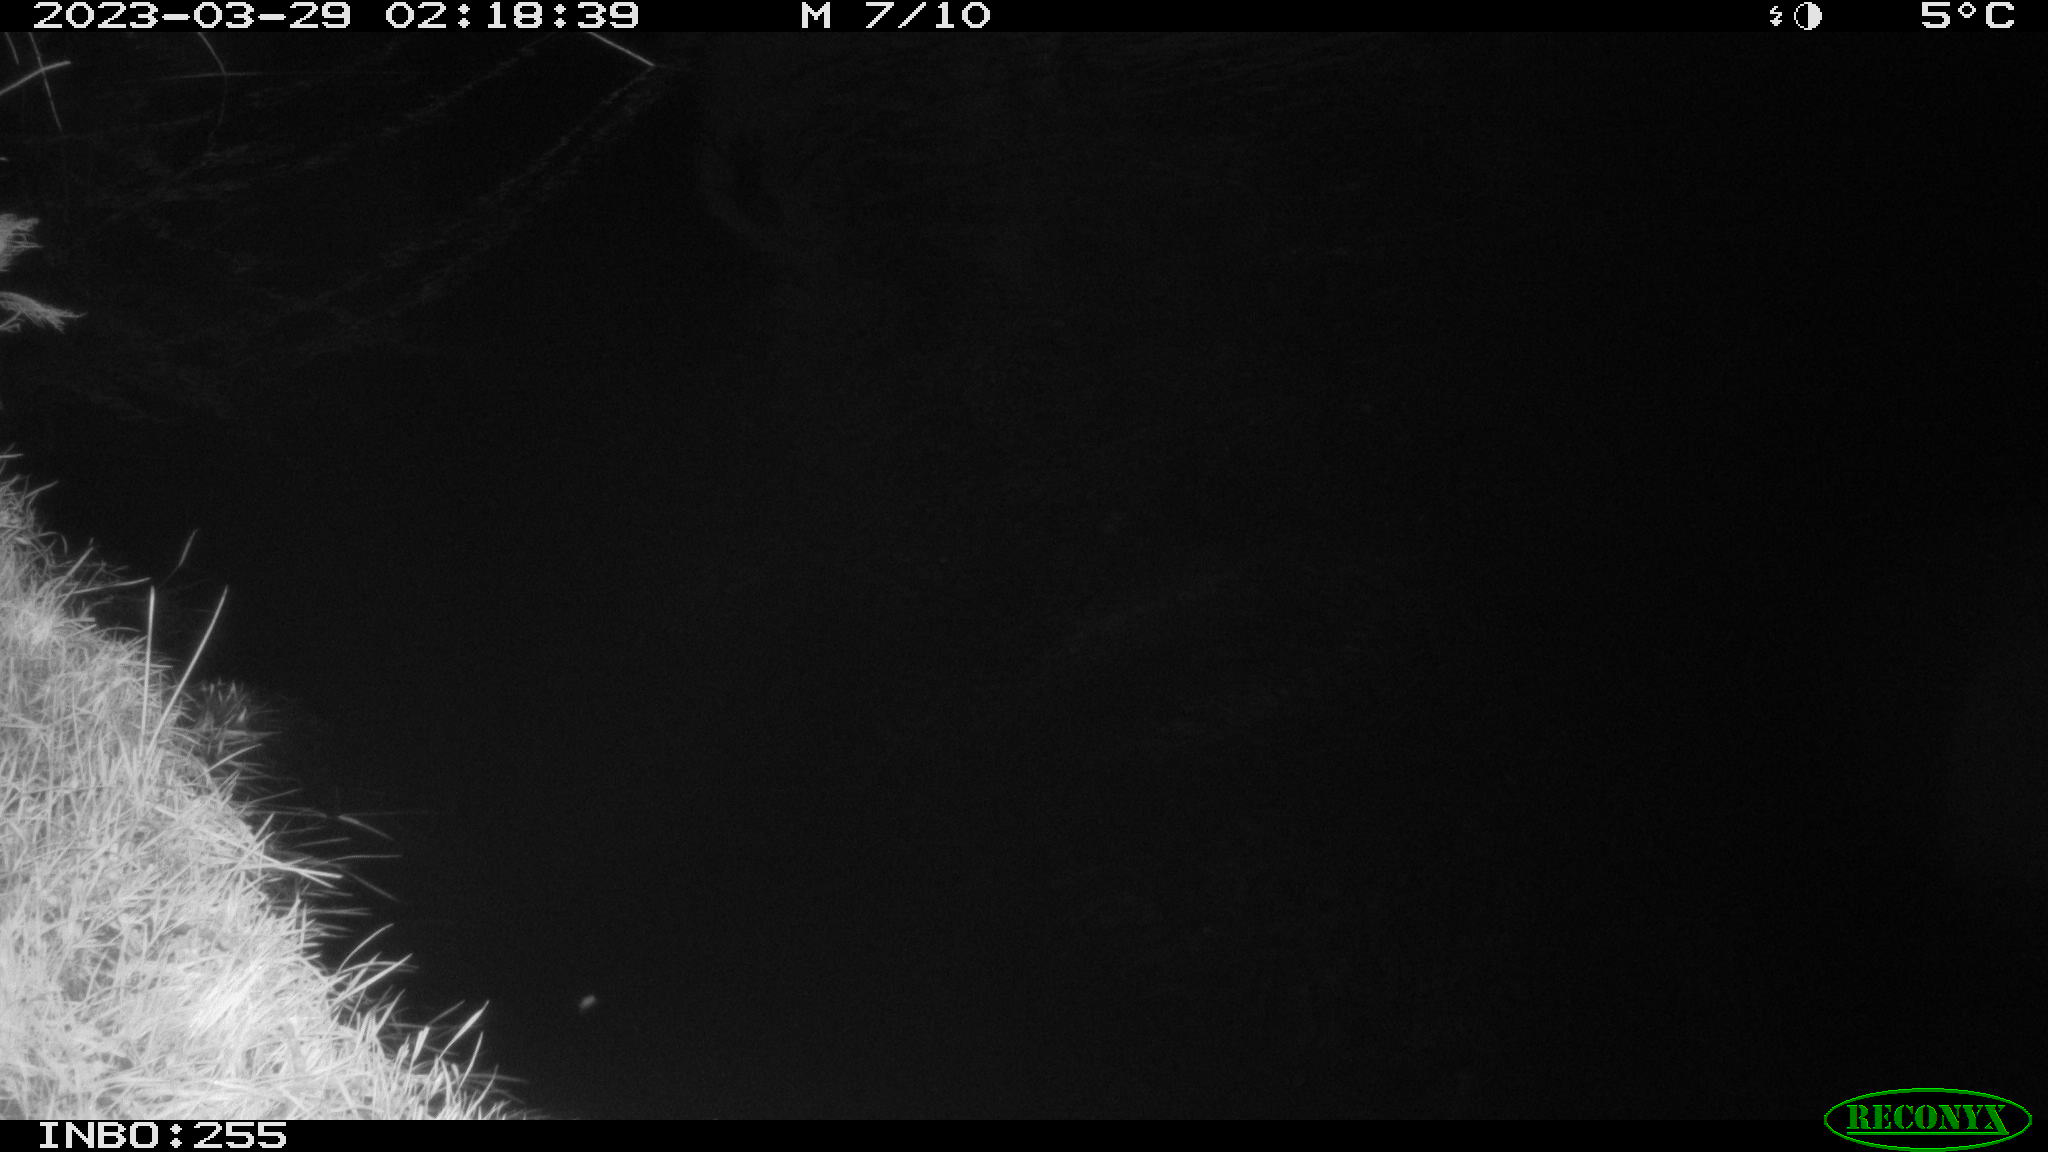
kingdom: Animalia
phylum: Chordata
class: Mammalia
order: Rodentia
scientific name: Rodentia
